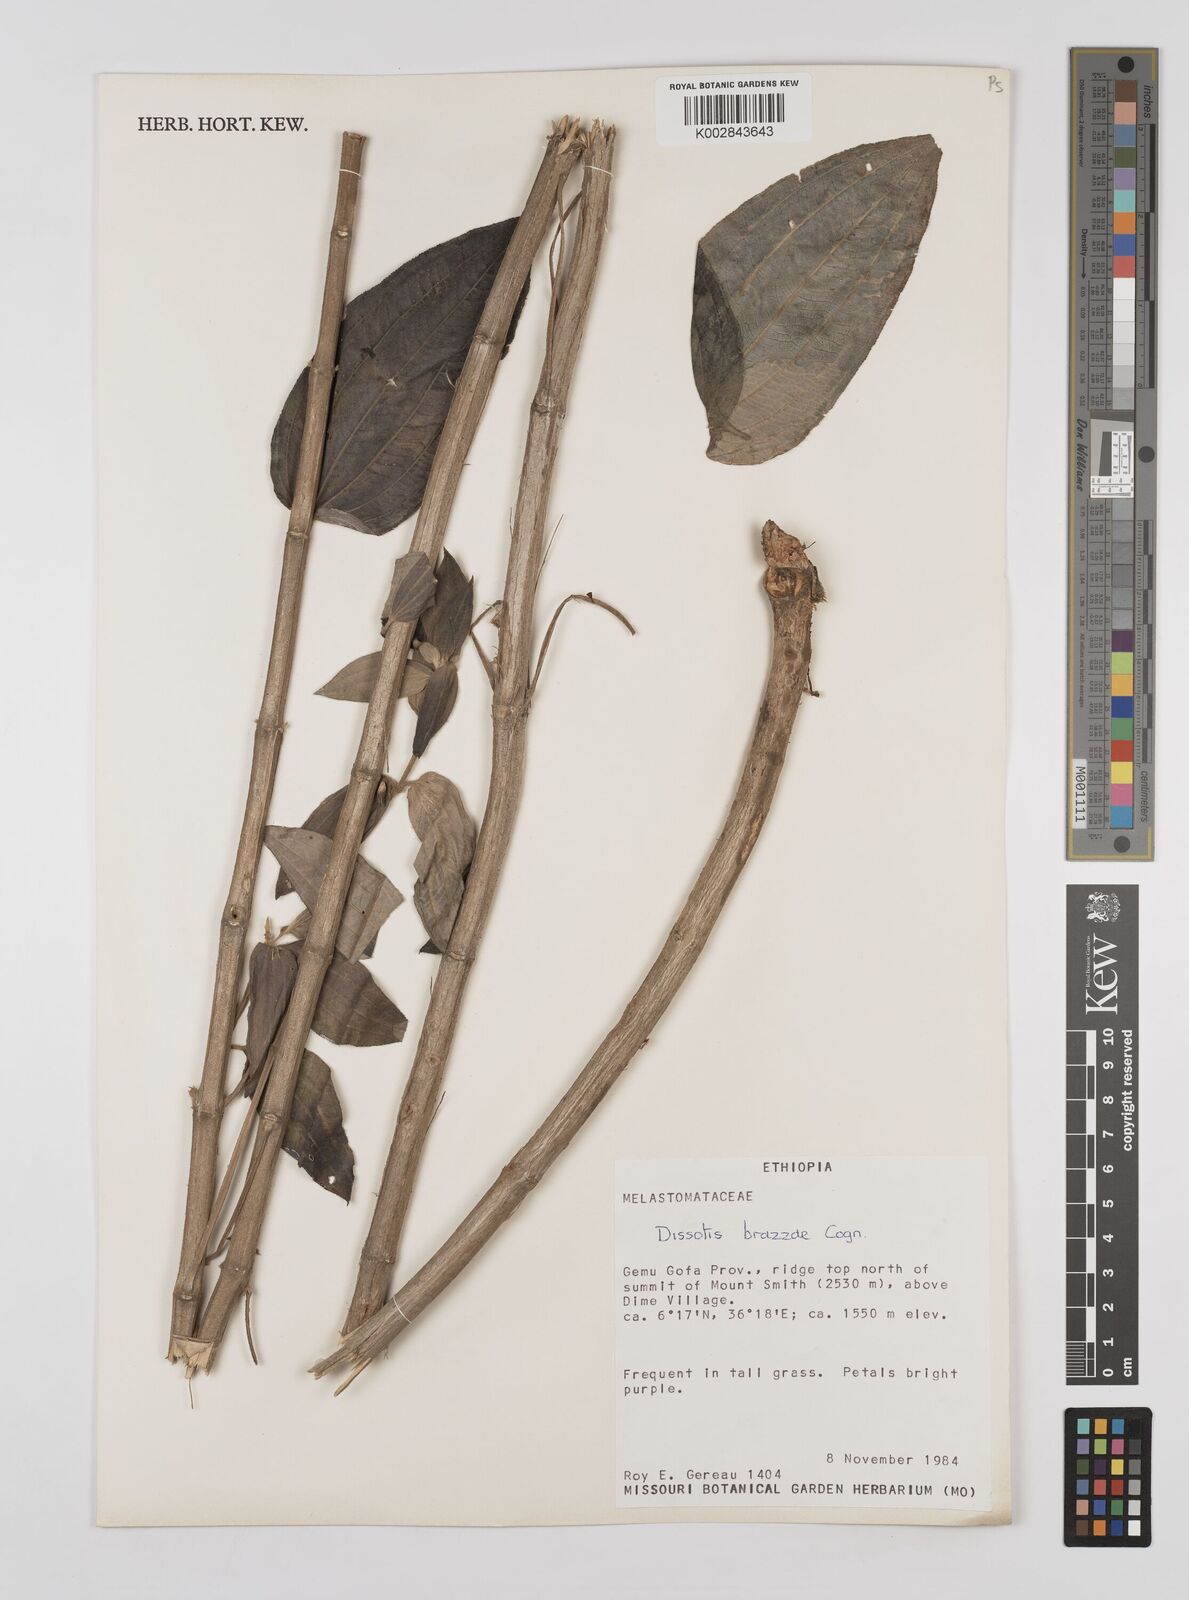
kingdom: Plantae
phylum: Tracheophyta
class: Magnoliopsida
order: Myrtales
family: Melastomataceae
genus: Dupineta
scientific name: Dupineta brazzae
